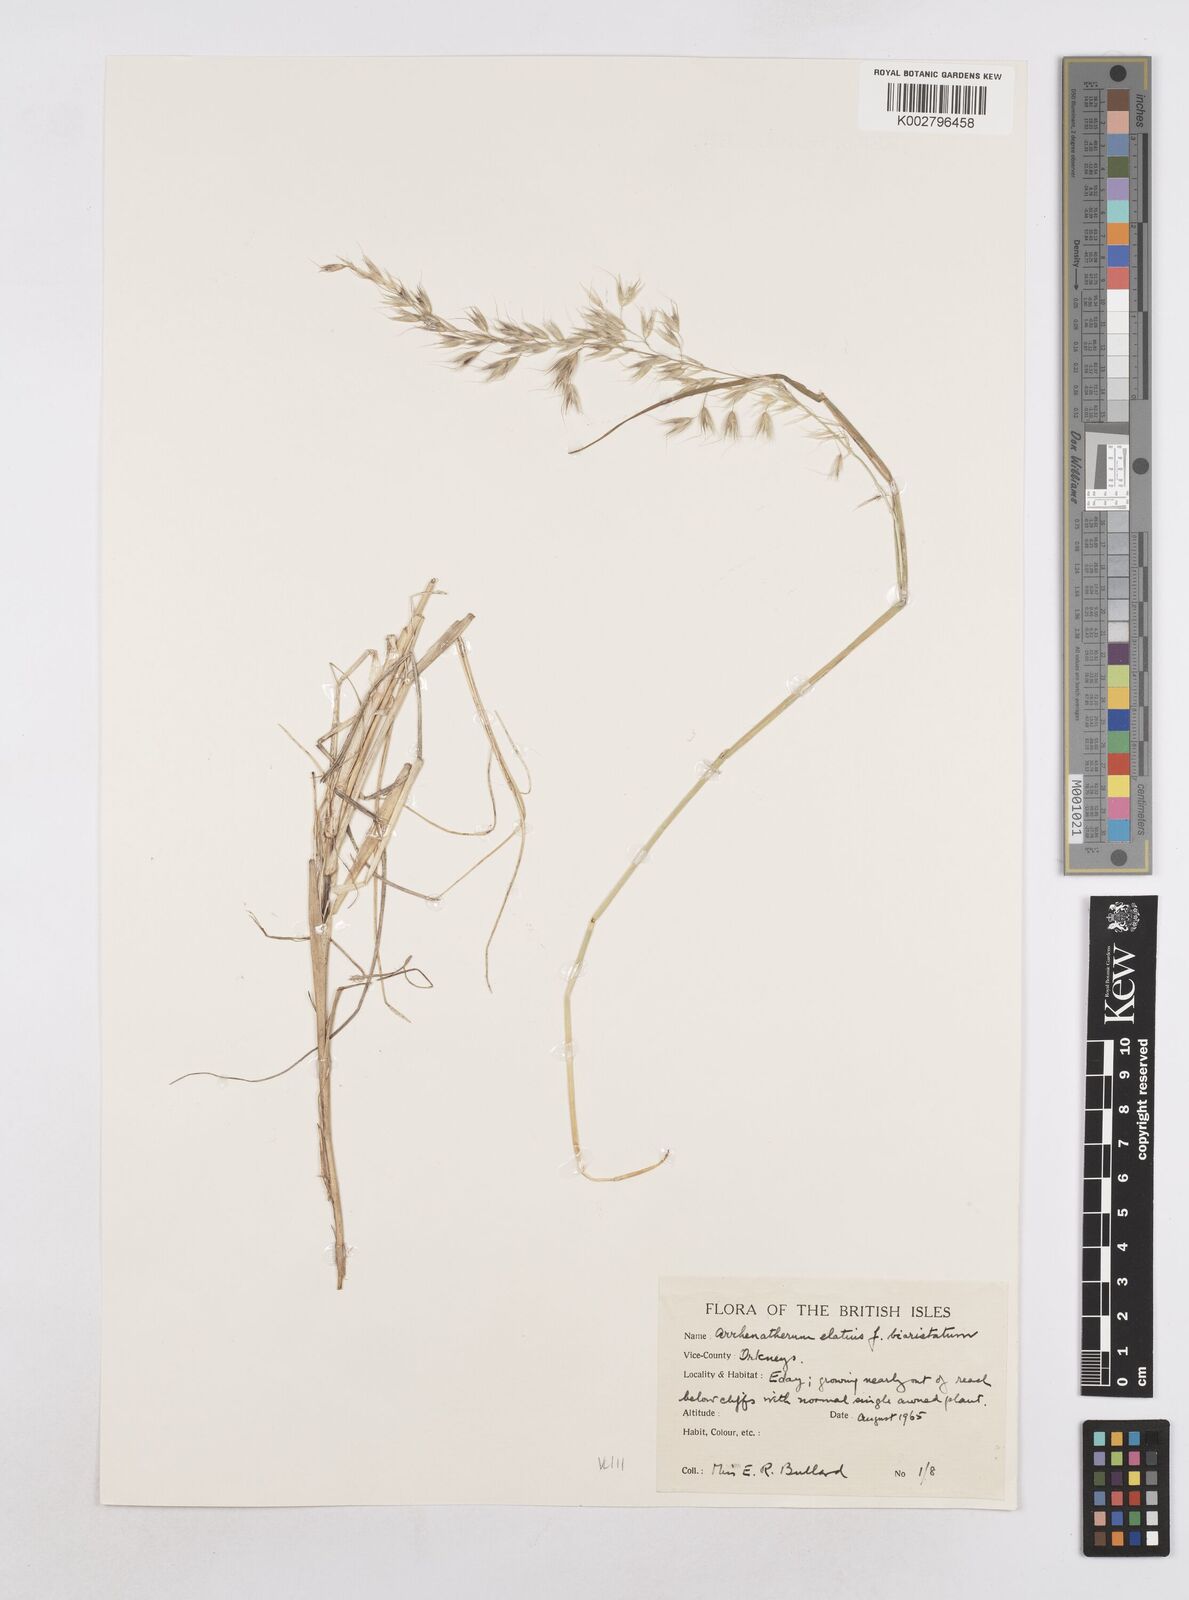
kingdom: Plantae
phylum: Tracheophyta
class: Liliopsida
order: Poales
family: Poaceae
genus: Arrhenatherum
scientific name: Arrhenatherum elatius
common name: Tall oatgrass
